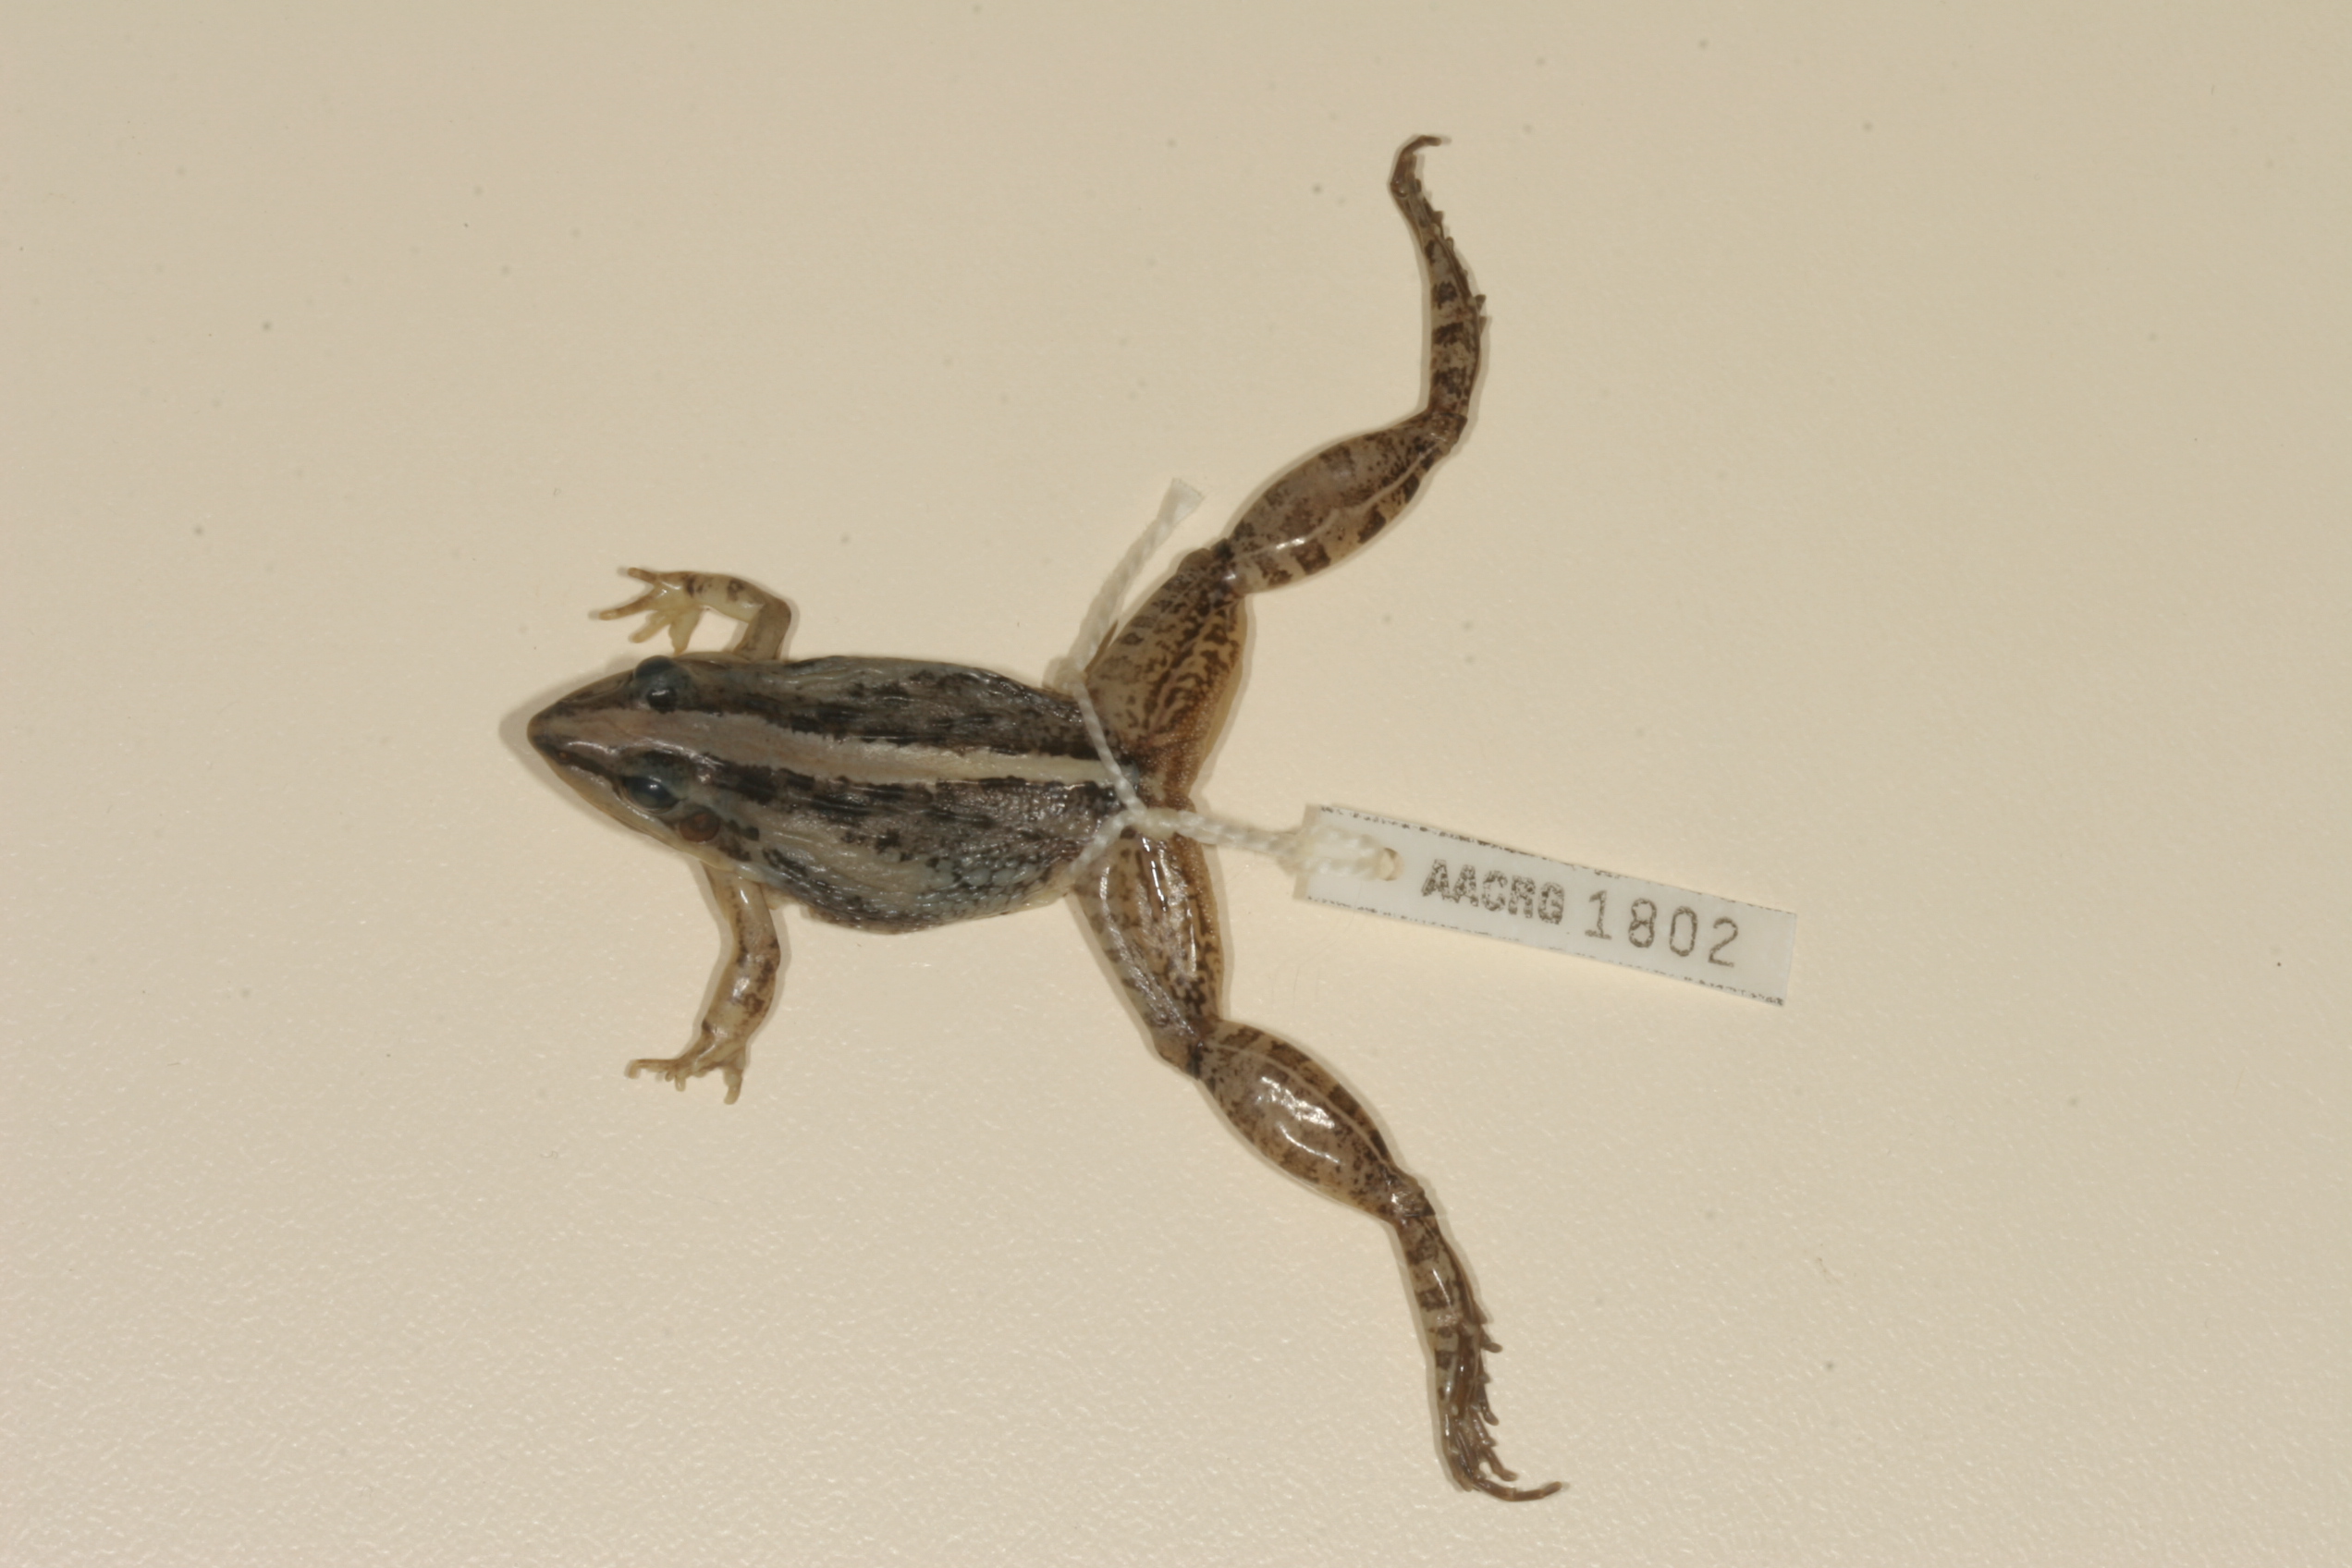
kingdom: Animalia
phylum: Chordata
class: Amphibia
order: Anura
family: Ptychadenidae
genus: Ptychadena
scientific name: Ptychadena mossambica
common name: Mozambique ridged frog
